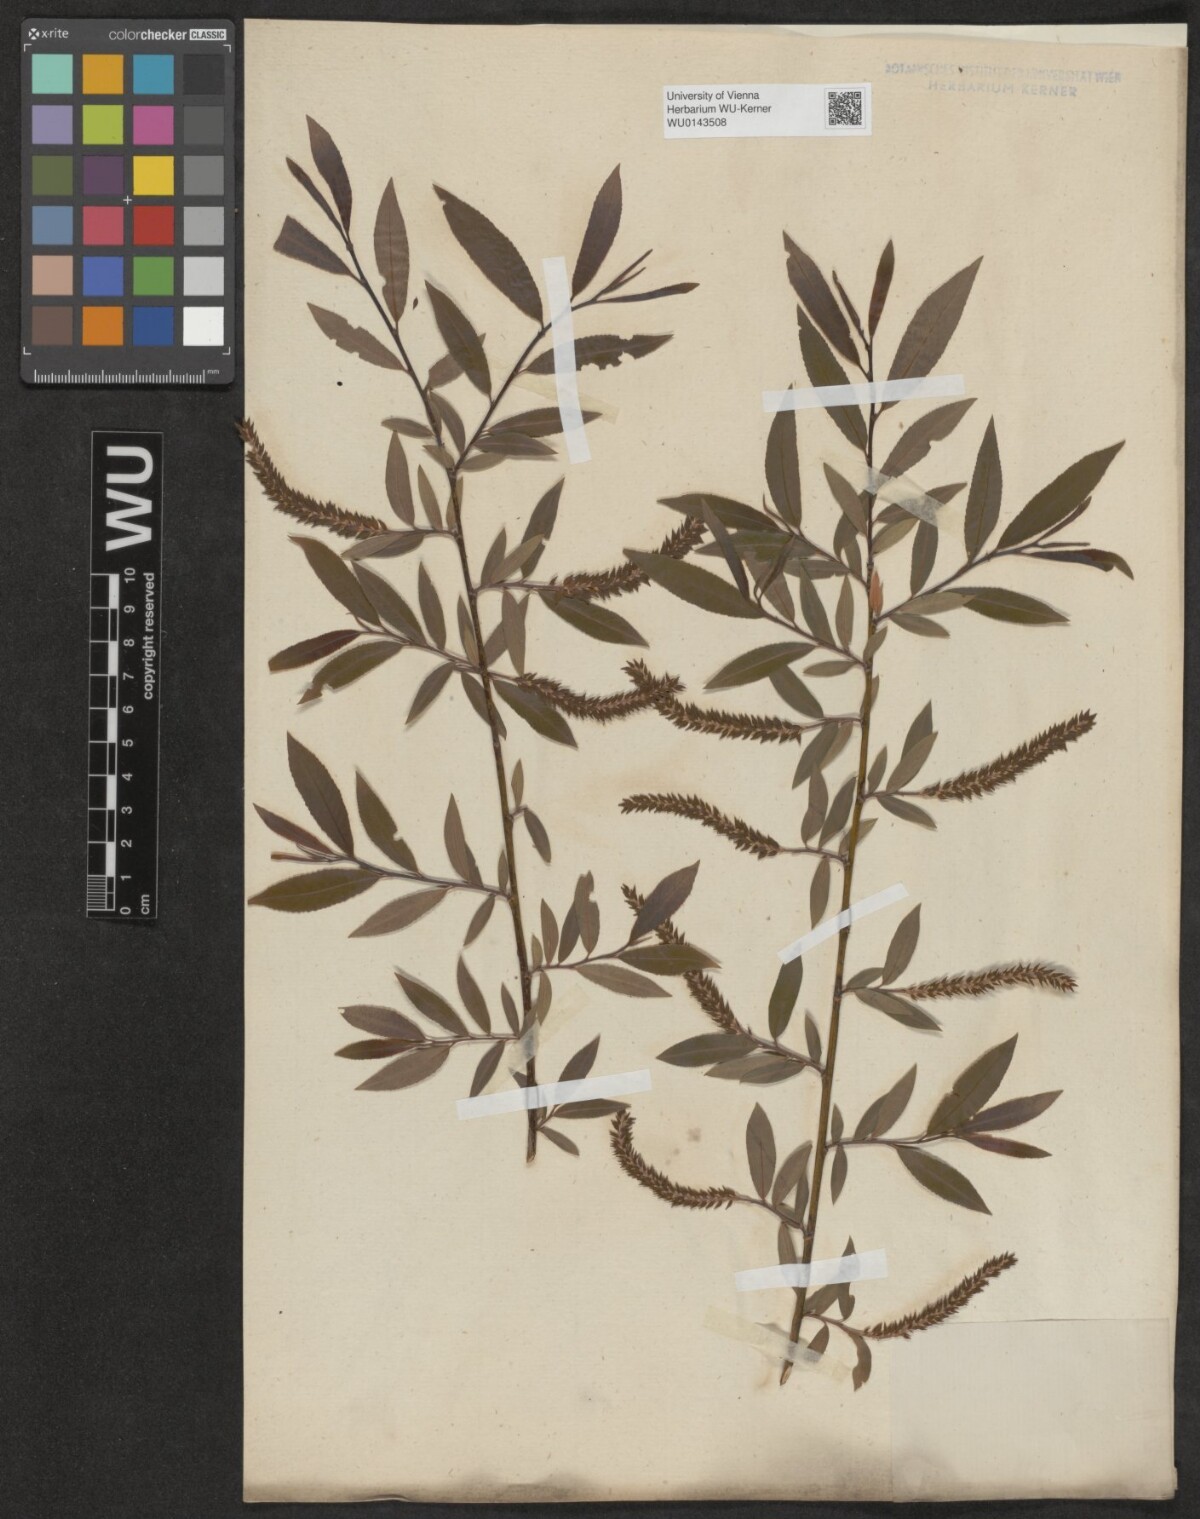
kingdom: Plantae
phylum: Tracheophyta
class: Magnoliopsida
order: Malpighiales
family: Salicaceae
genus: Salix
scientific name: Salix triandra
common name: Almond willow
